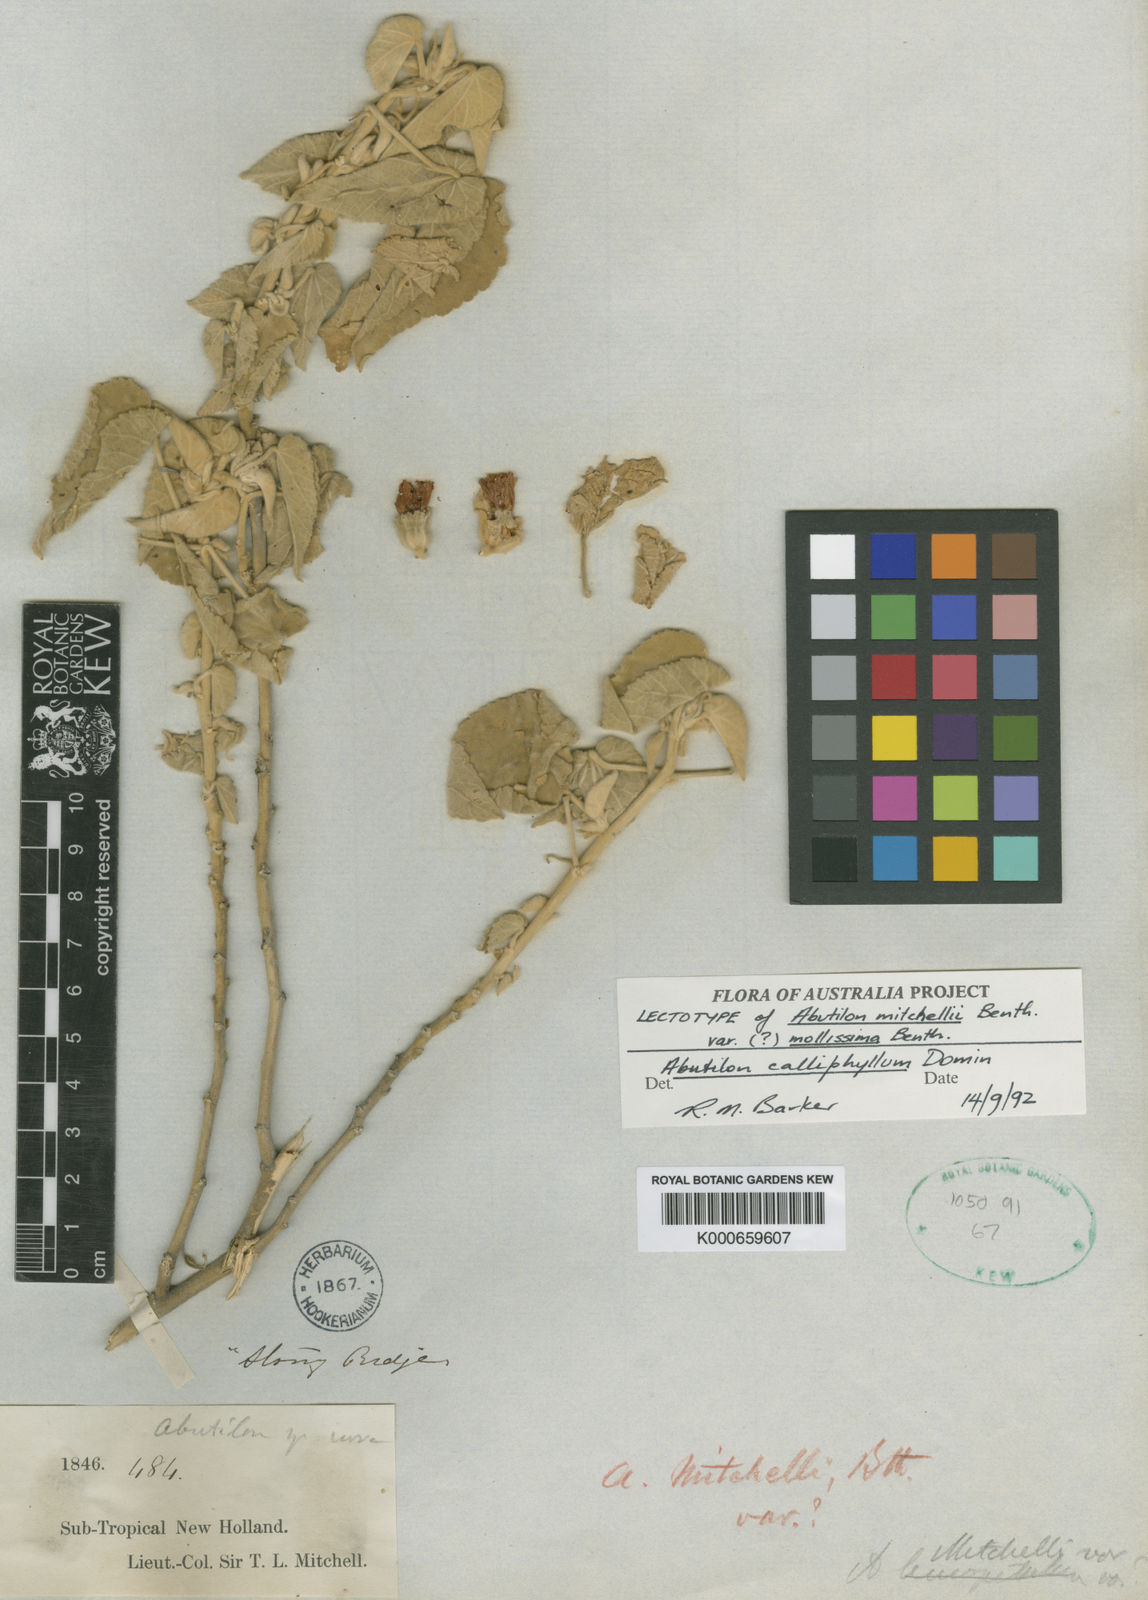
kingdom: Plantae
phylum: Tracheophyta
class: Magnoliopsida
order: Malvales
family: Malvaceae
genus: Abutilon
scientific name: Abutilon calliphyllum
